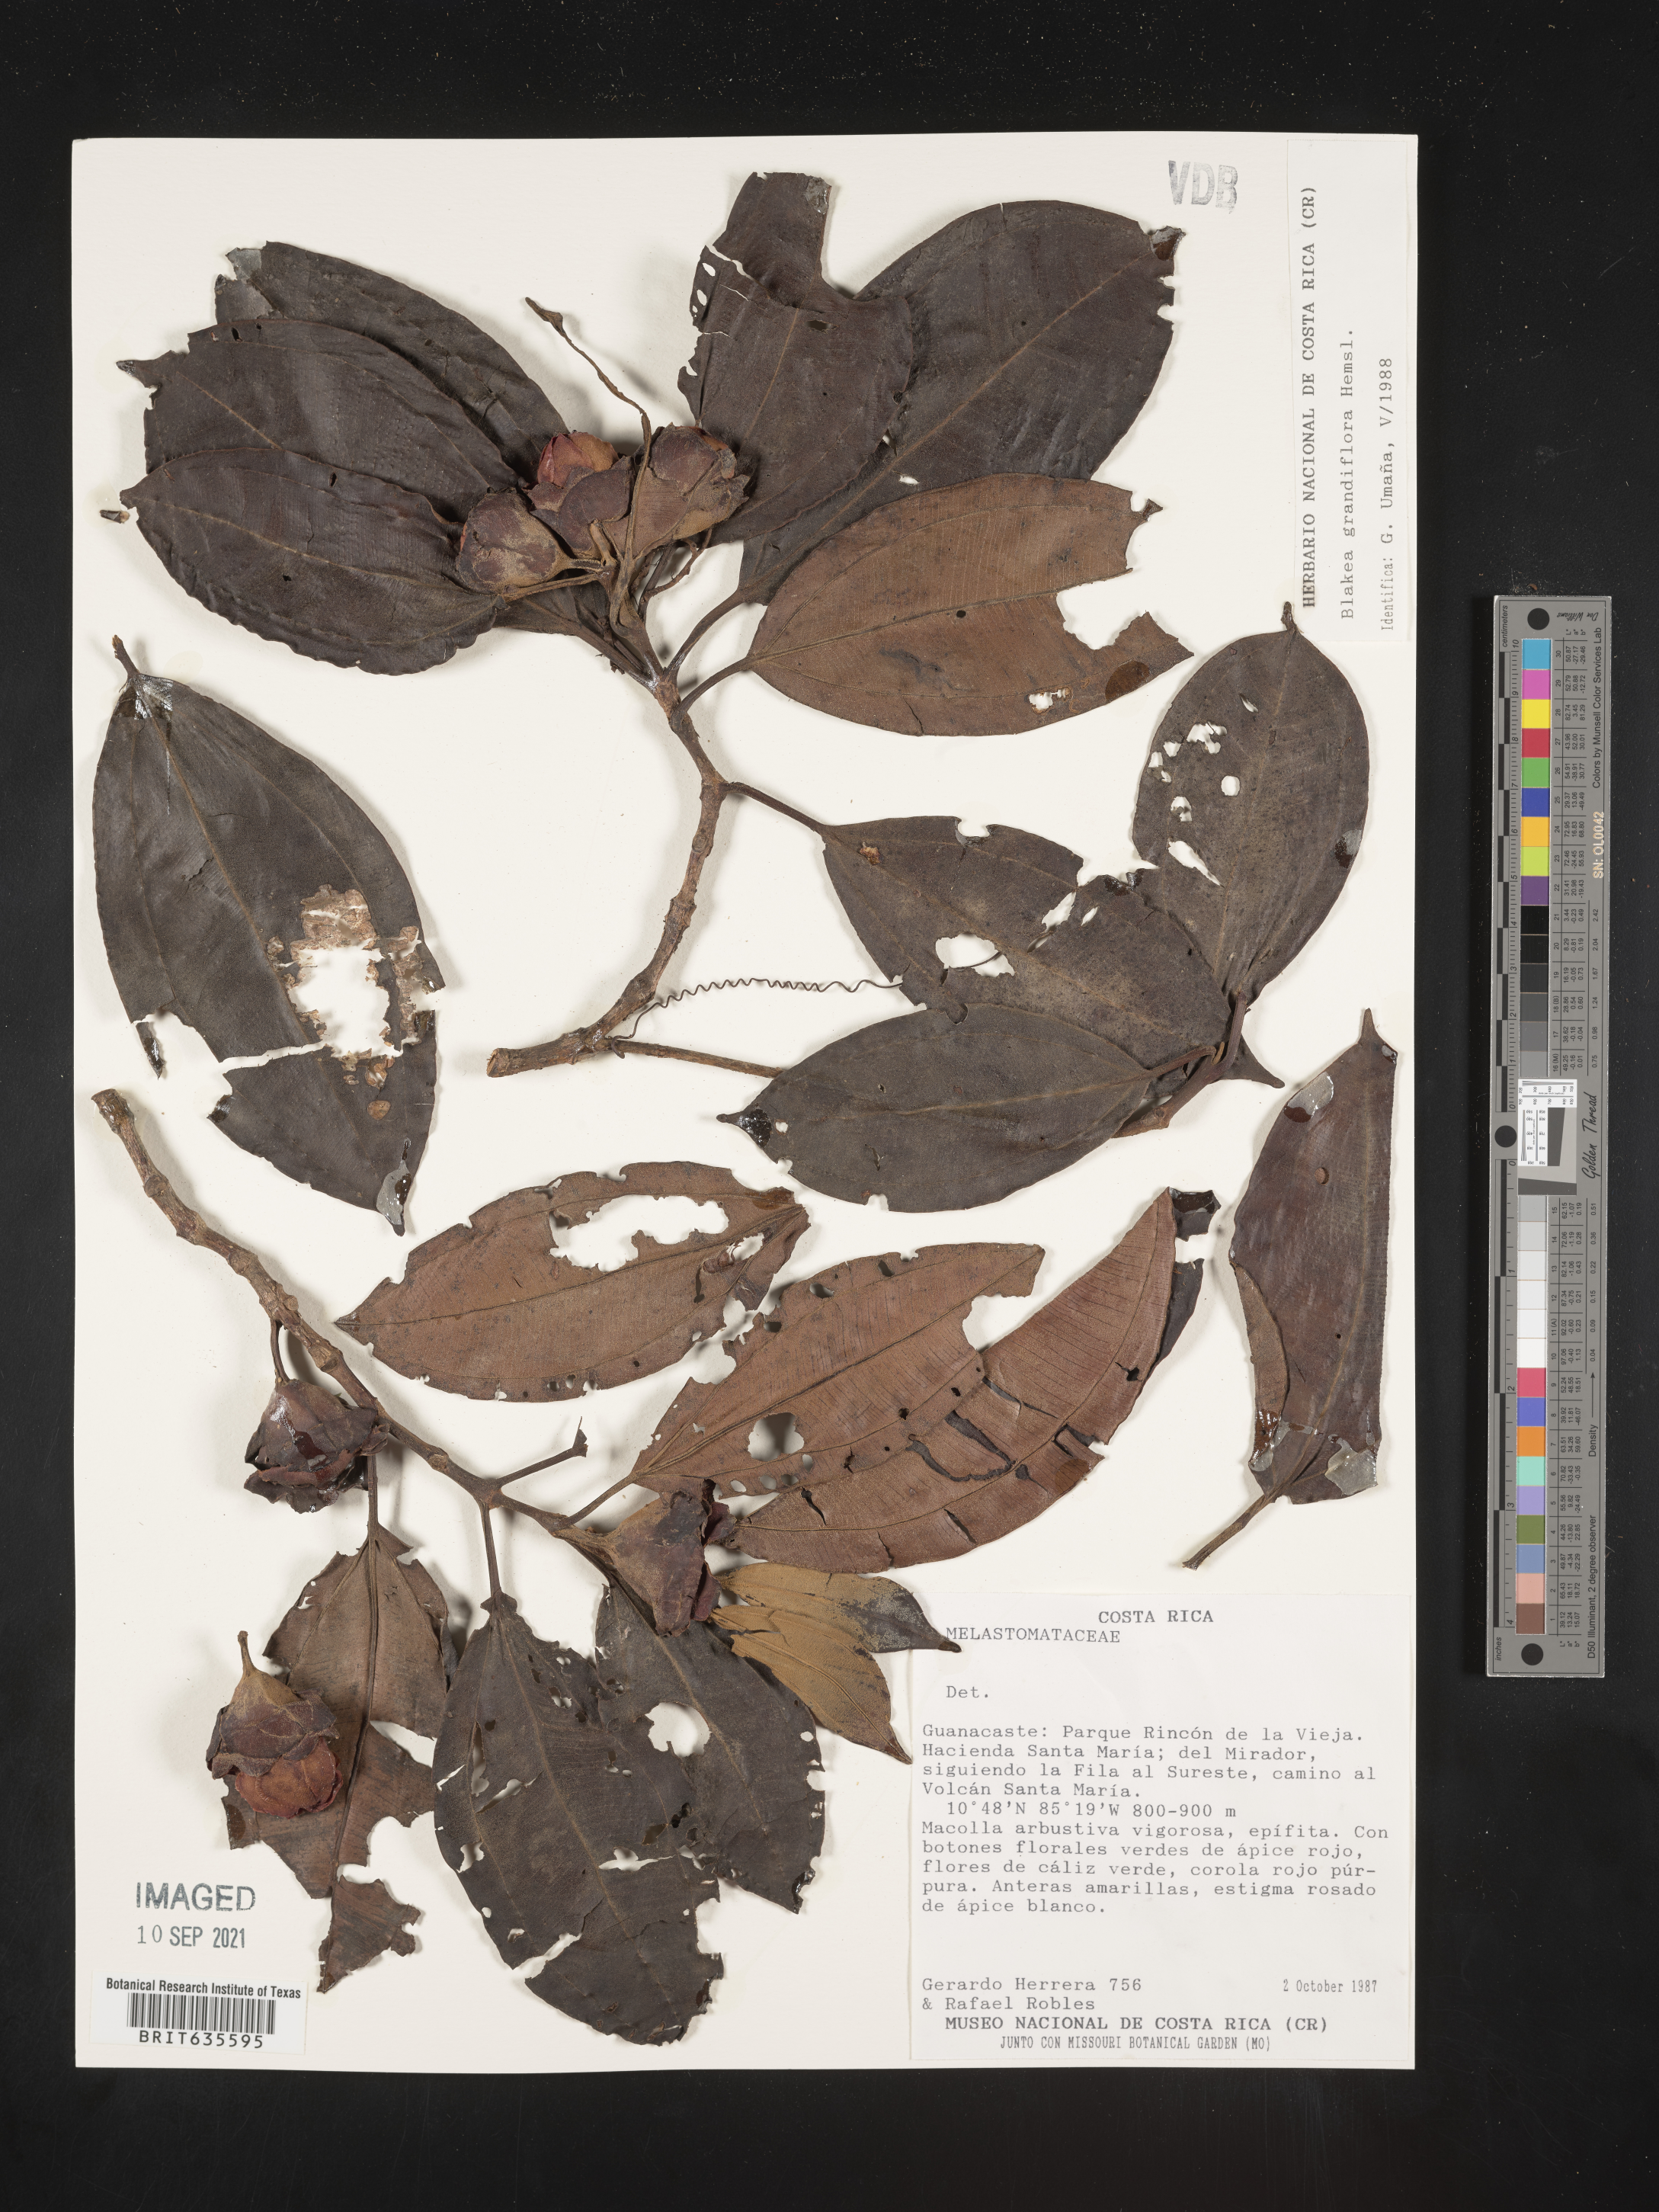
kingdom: Plantae
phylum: Tracheophyta
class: Magnoliopsida
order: Myrtales
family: Melastomataceae
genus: Blakea
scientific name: Blakea
